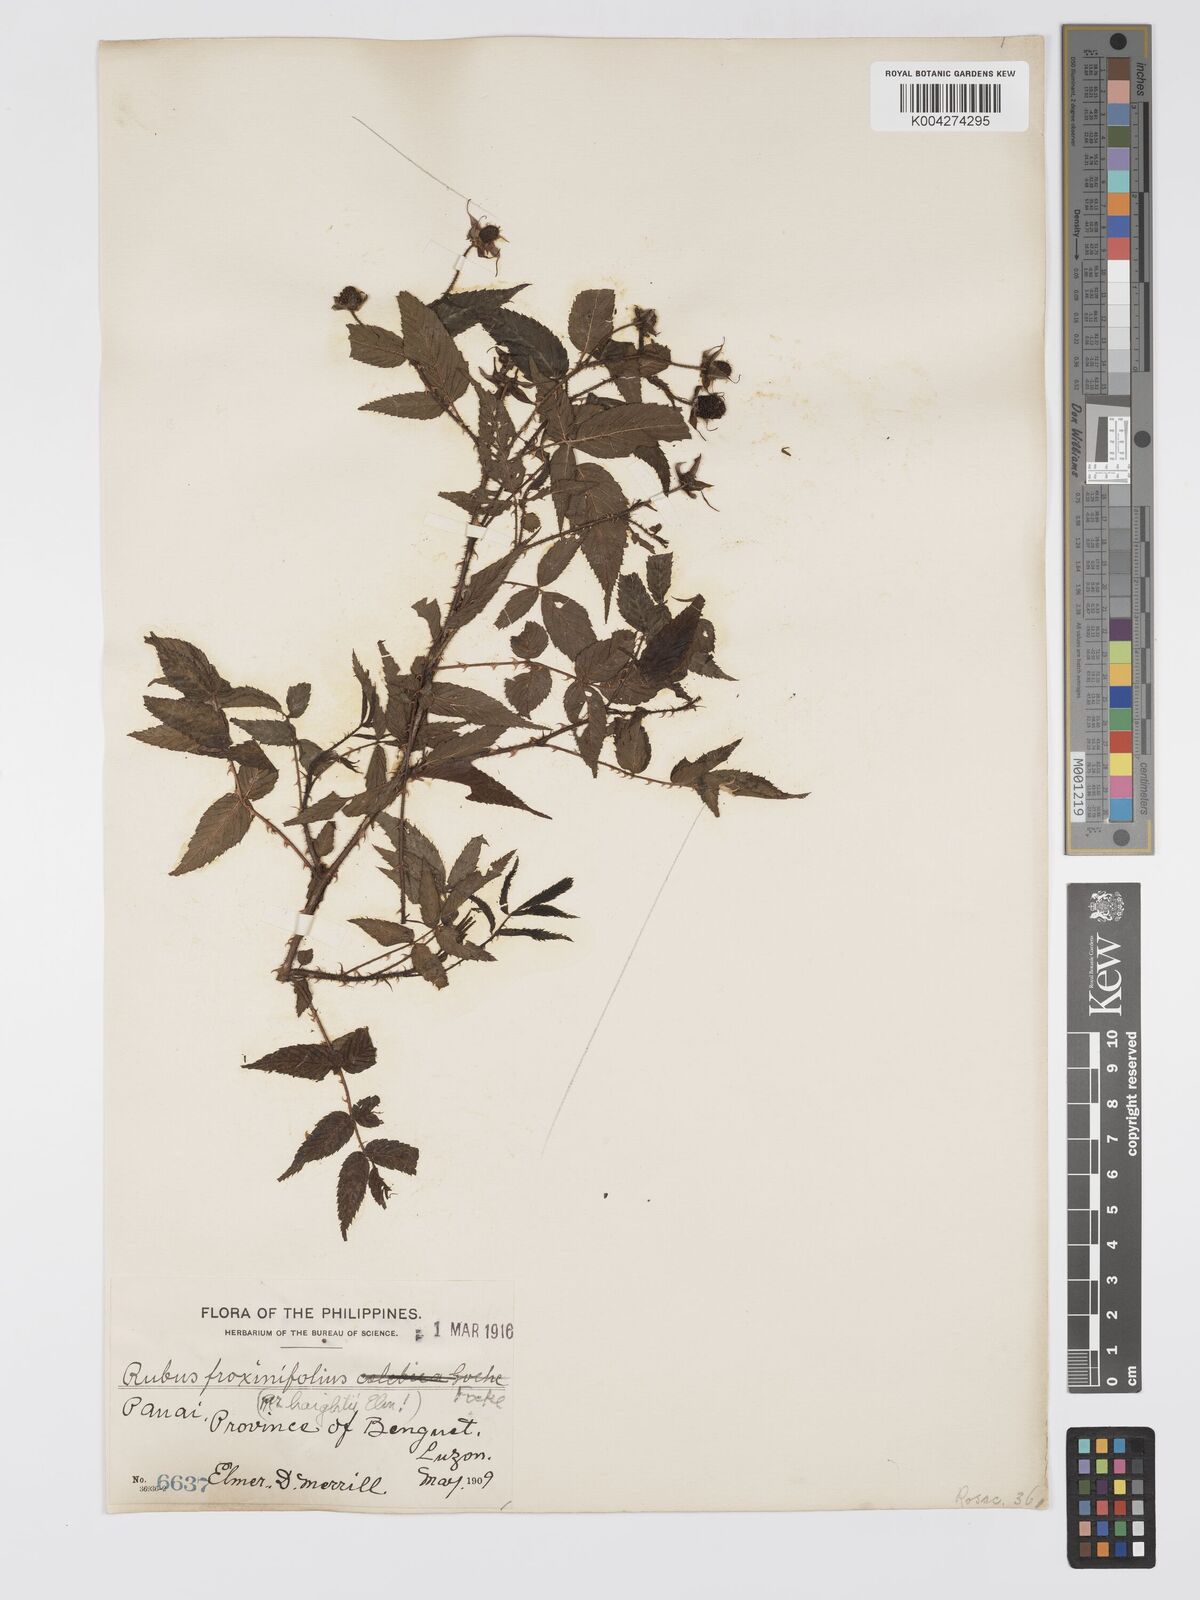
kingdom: Plantae
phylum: Tracheophyta
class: Magnoliopsida
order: Rosales
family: Rosaceae
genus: Rubus
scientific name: Rubus fraxinifolius
